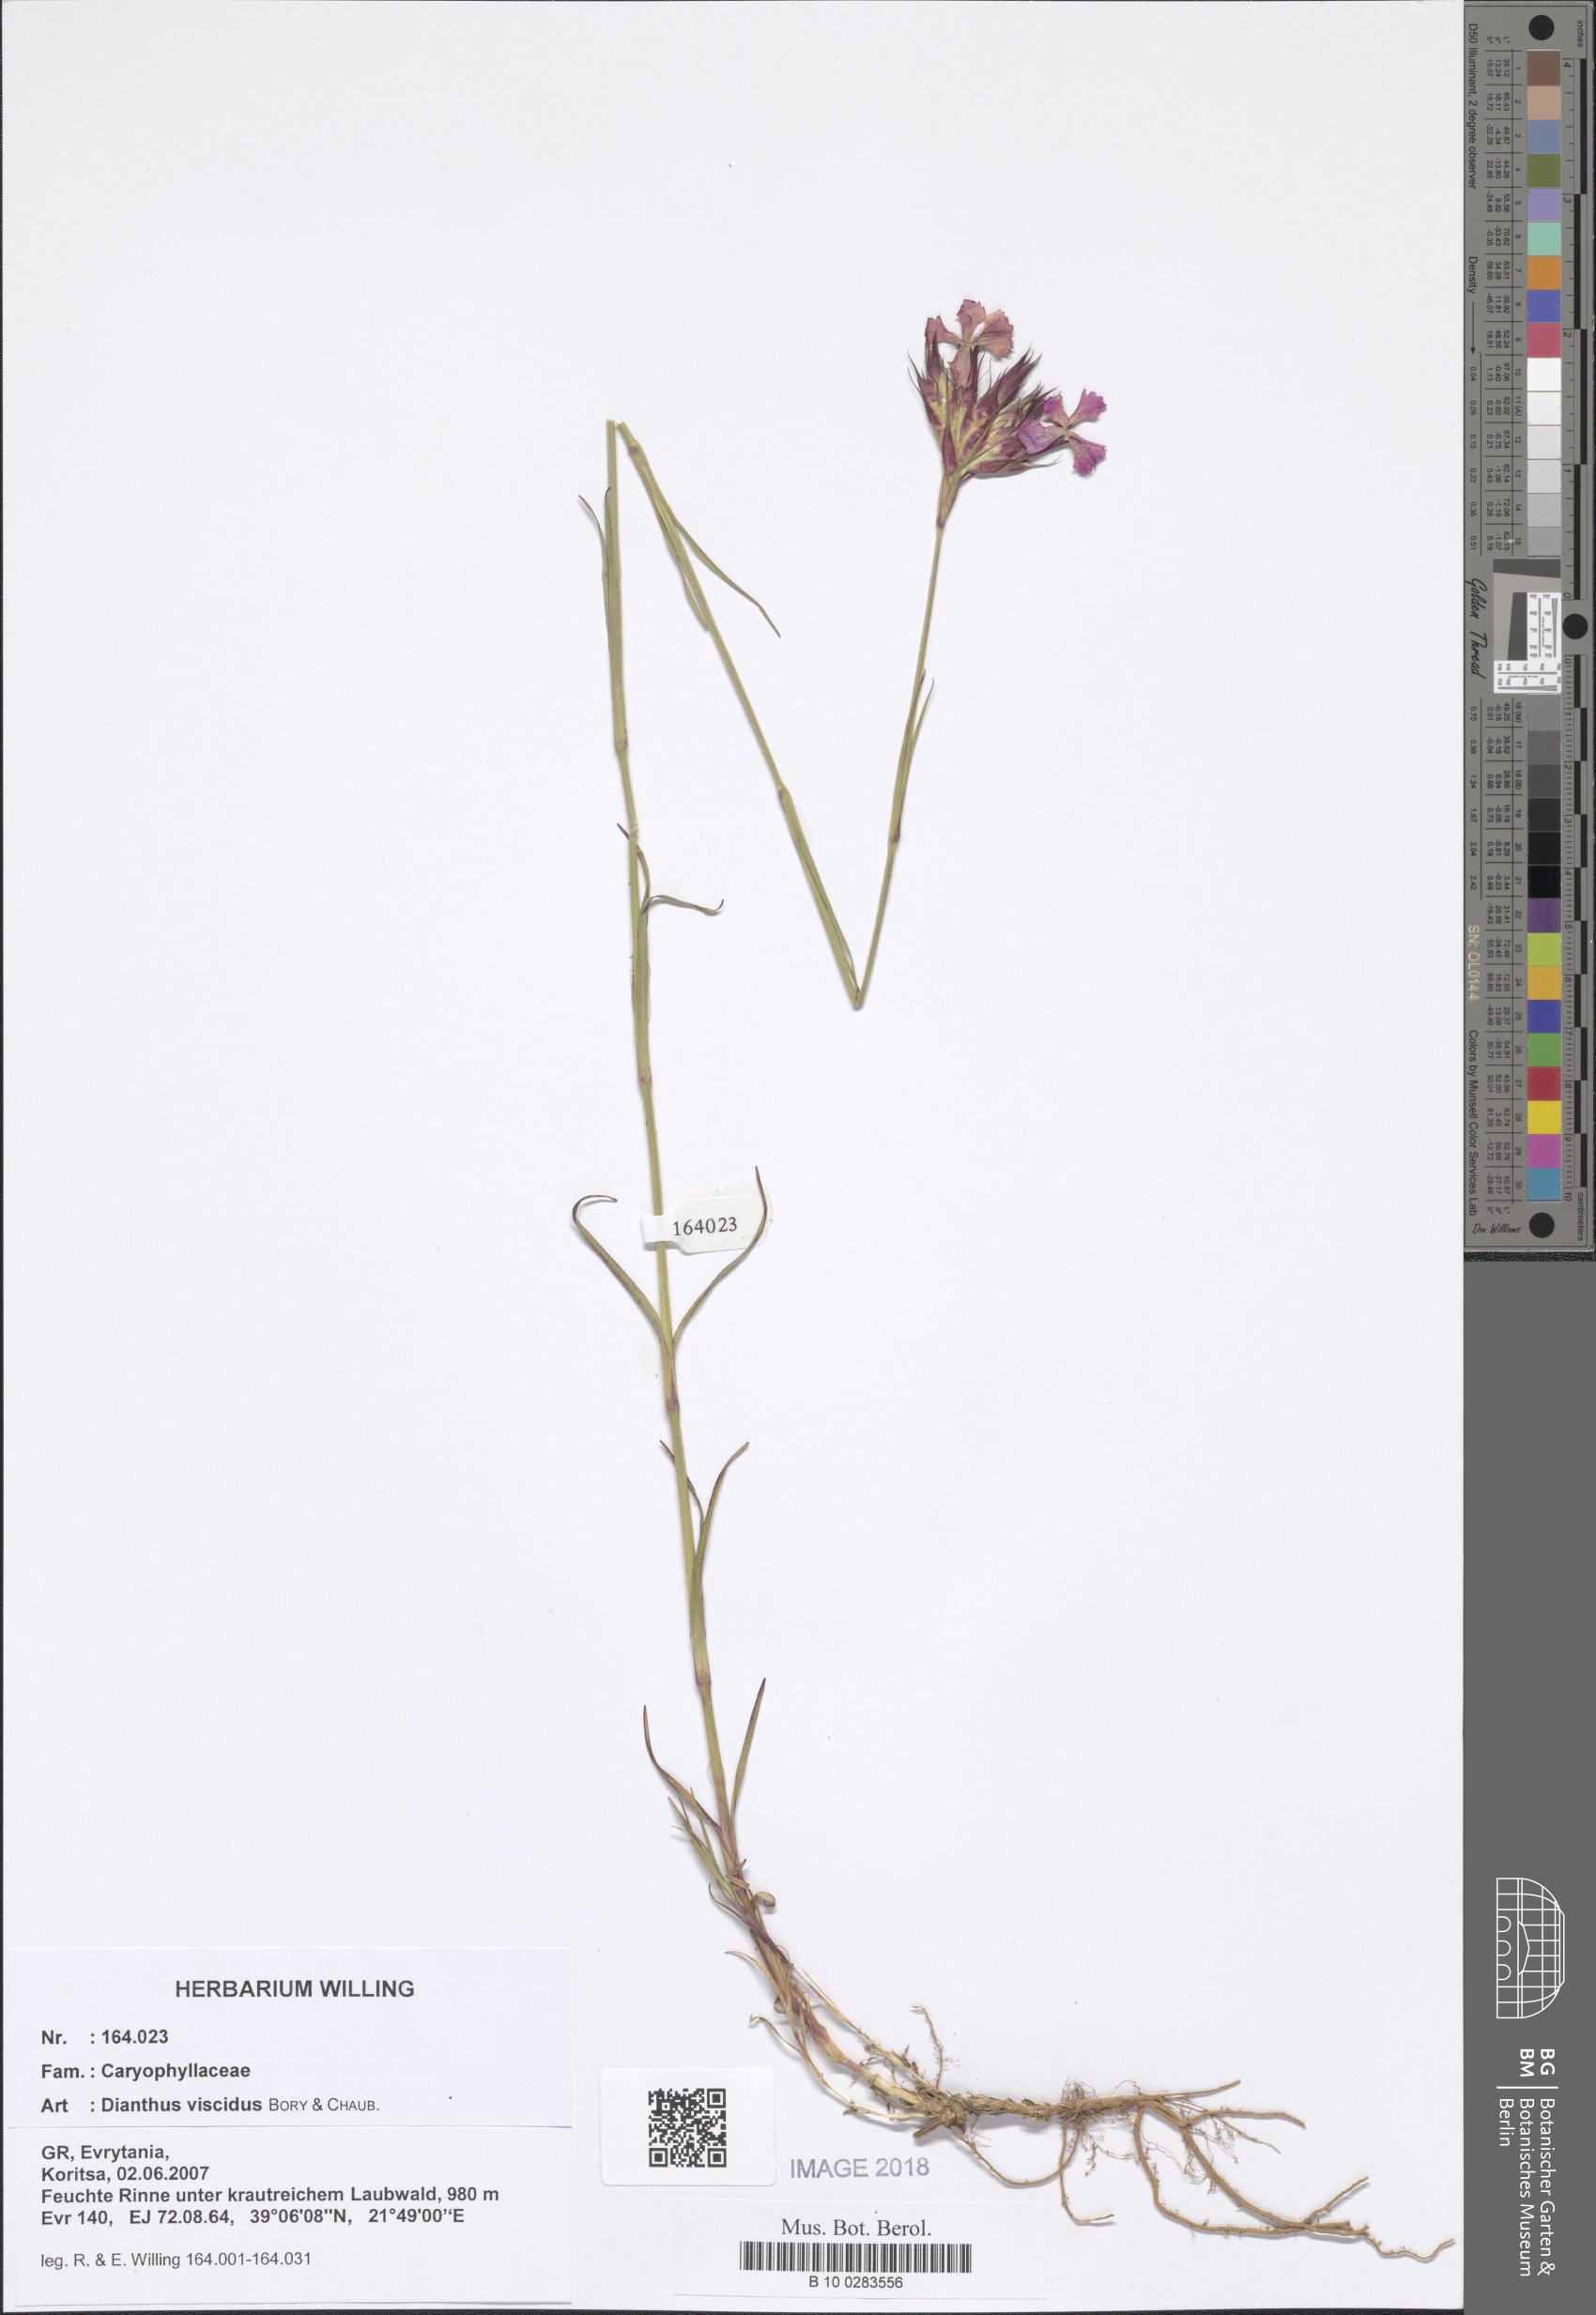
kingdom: Plantae
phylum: Tracheophyta
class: Magnoliopsida
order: Caryophyllales
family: Caryophyllaceae
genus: Dianthus
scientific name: Dianthus viscidus
